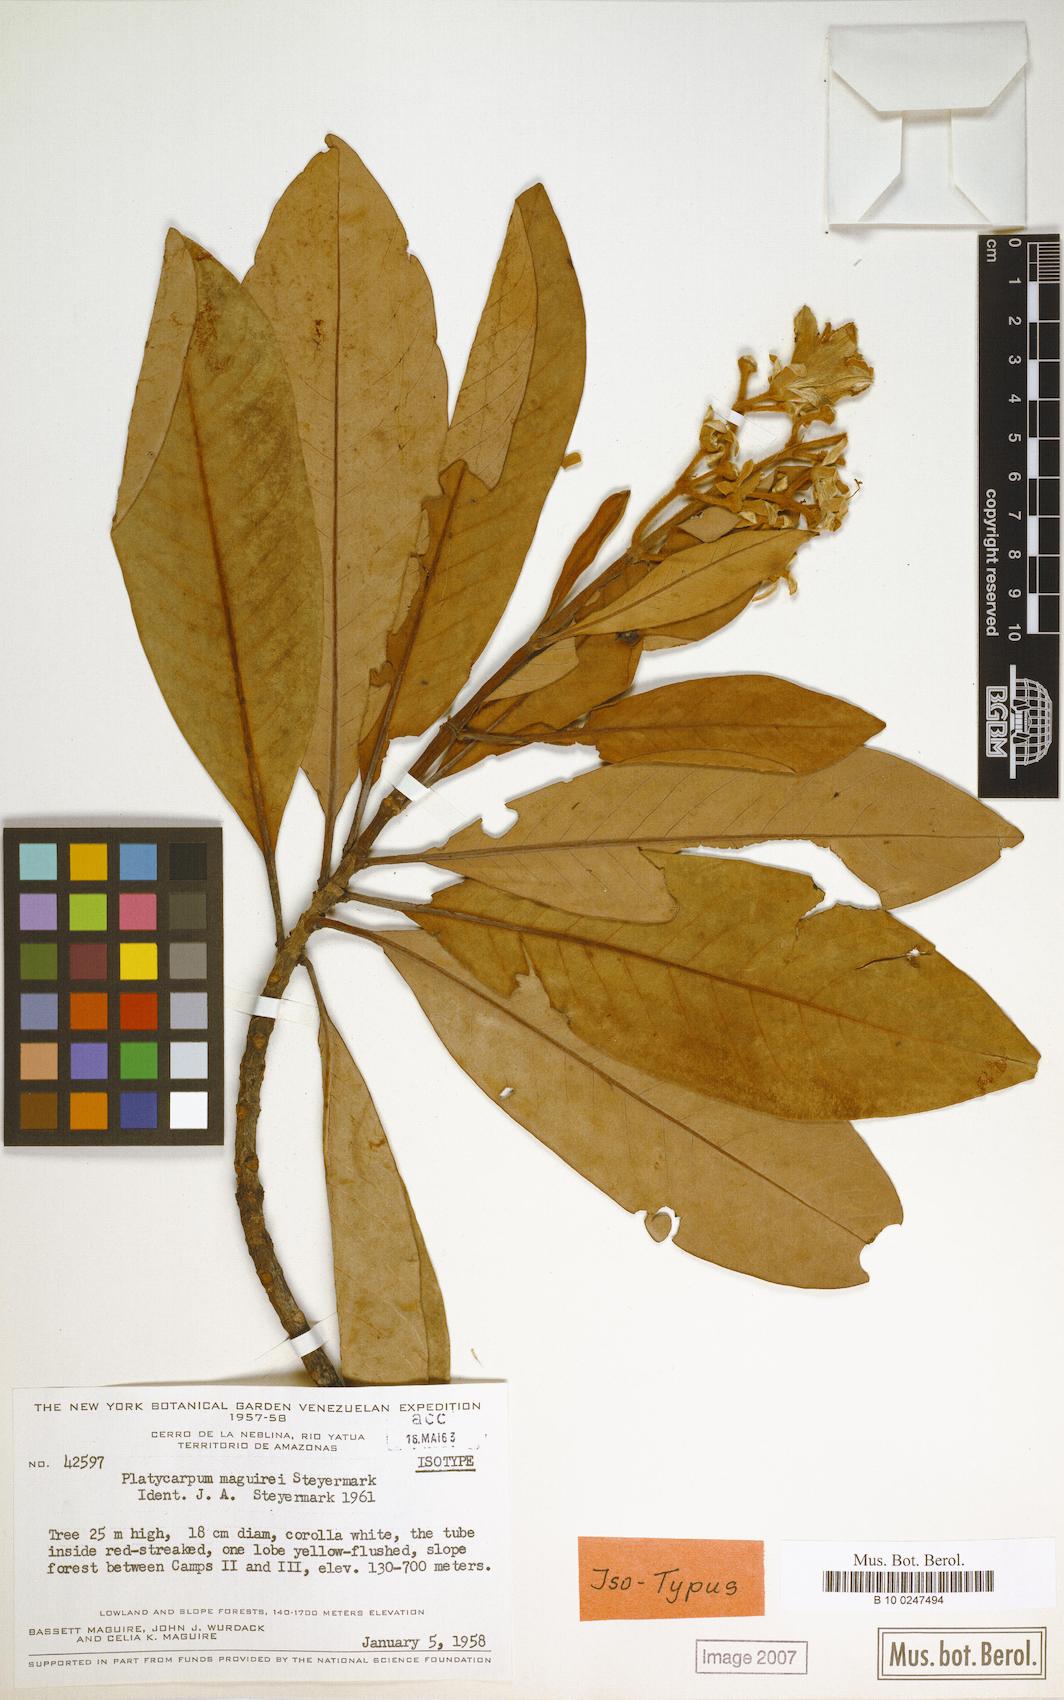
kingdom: Plantae
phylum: Tracheophyta
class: Magnoliopsida
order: Gentianales
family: Rubiaceae
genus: Platycarpum
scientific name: Platycarpum maguirei
